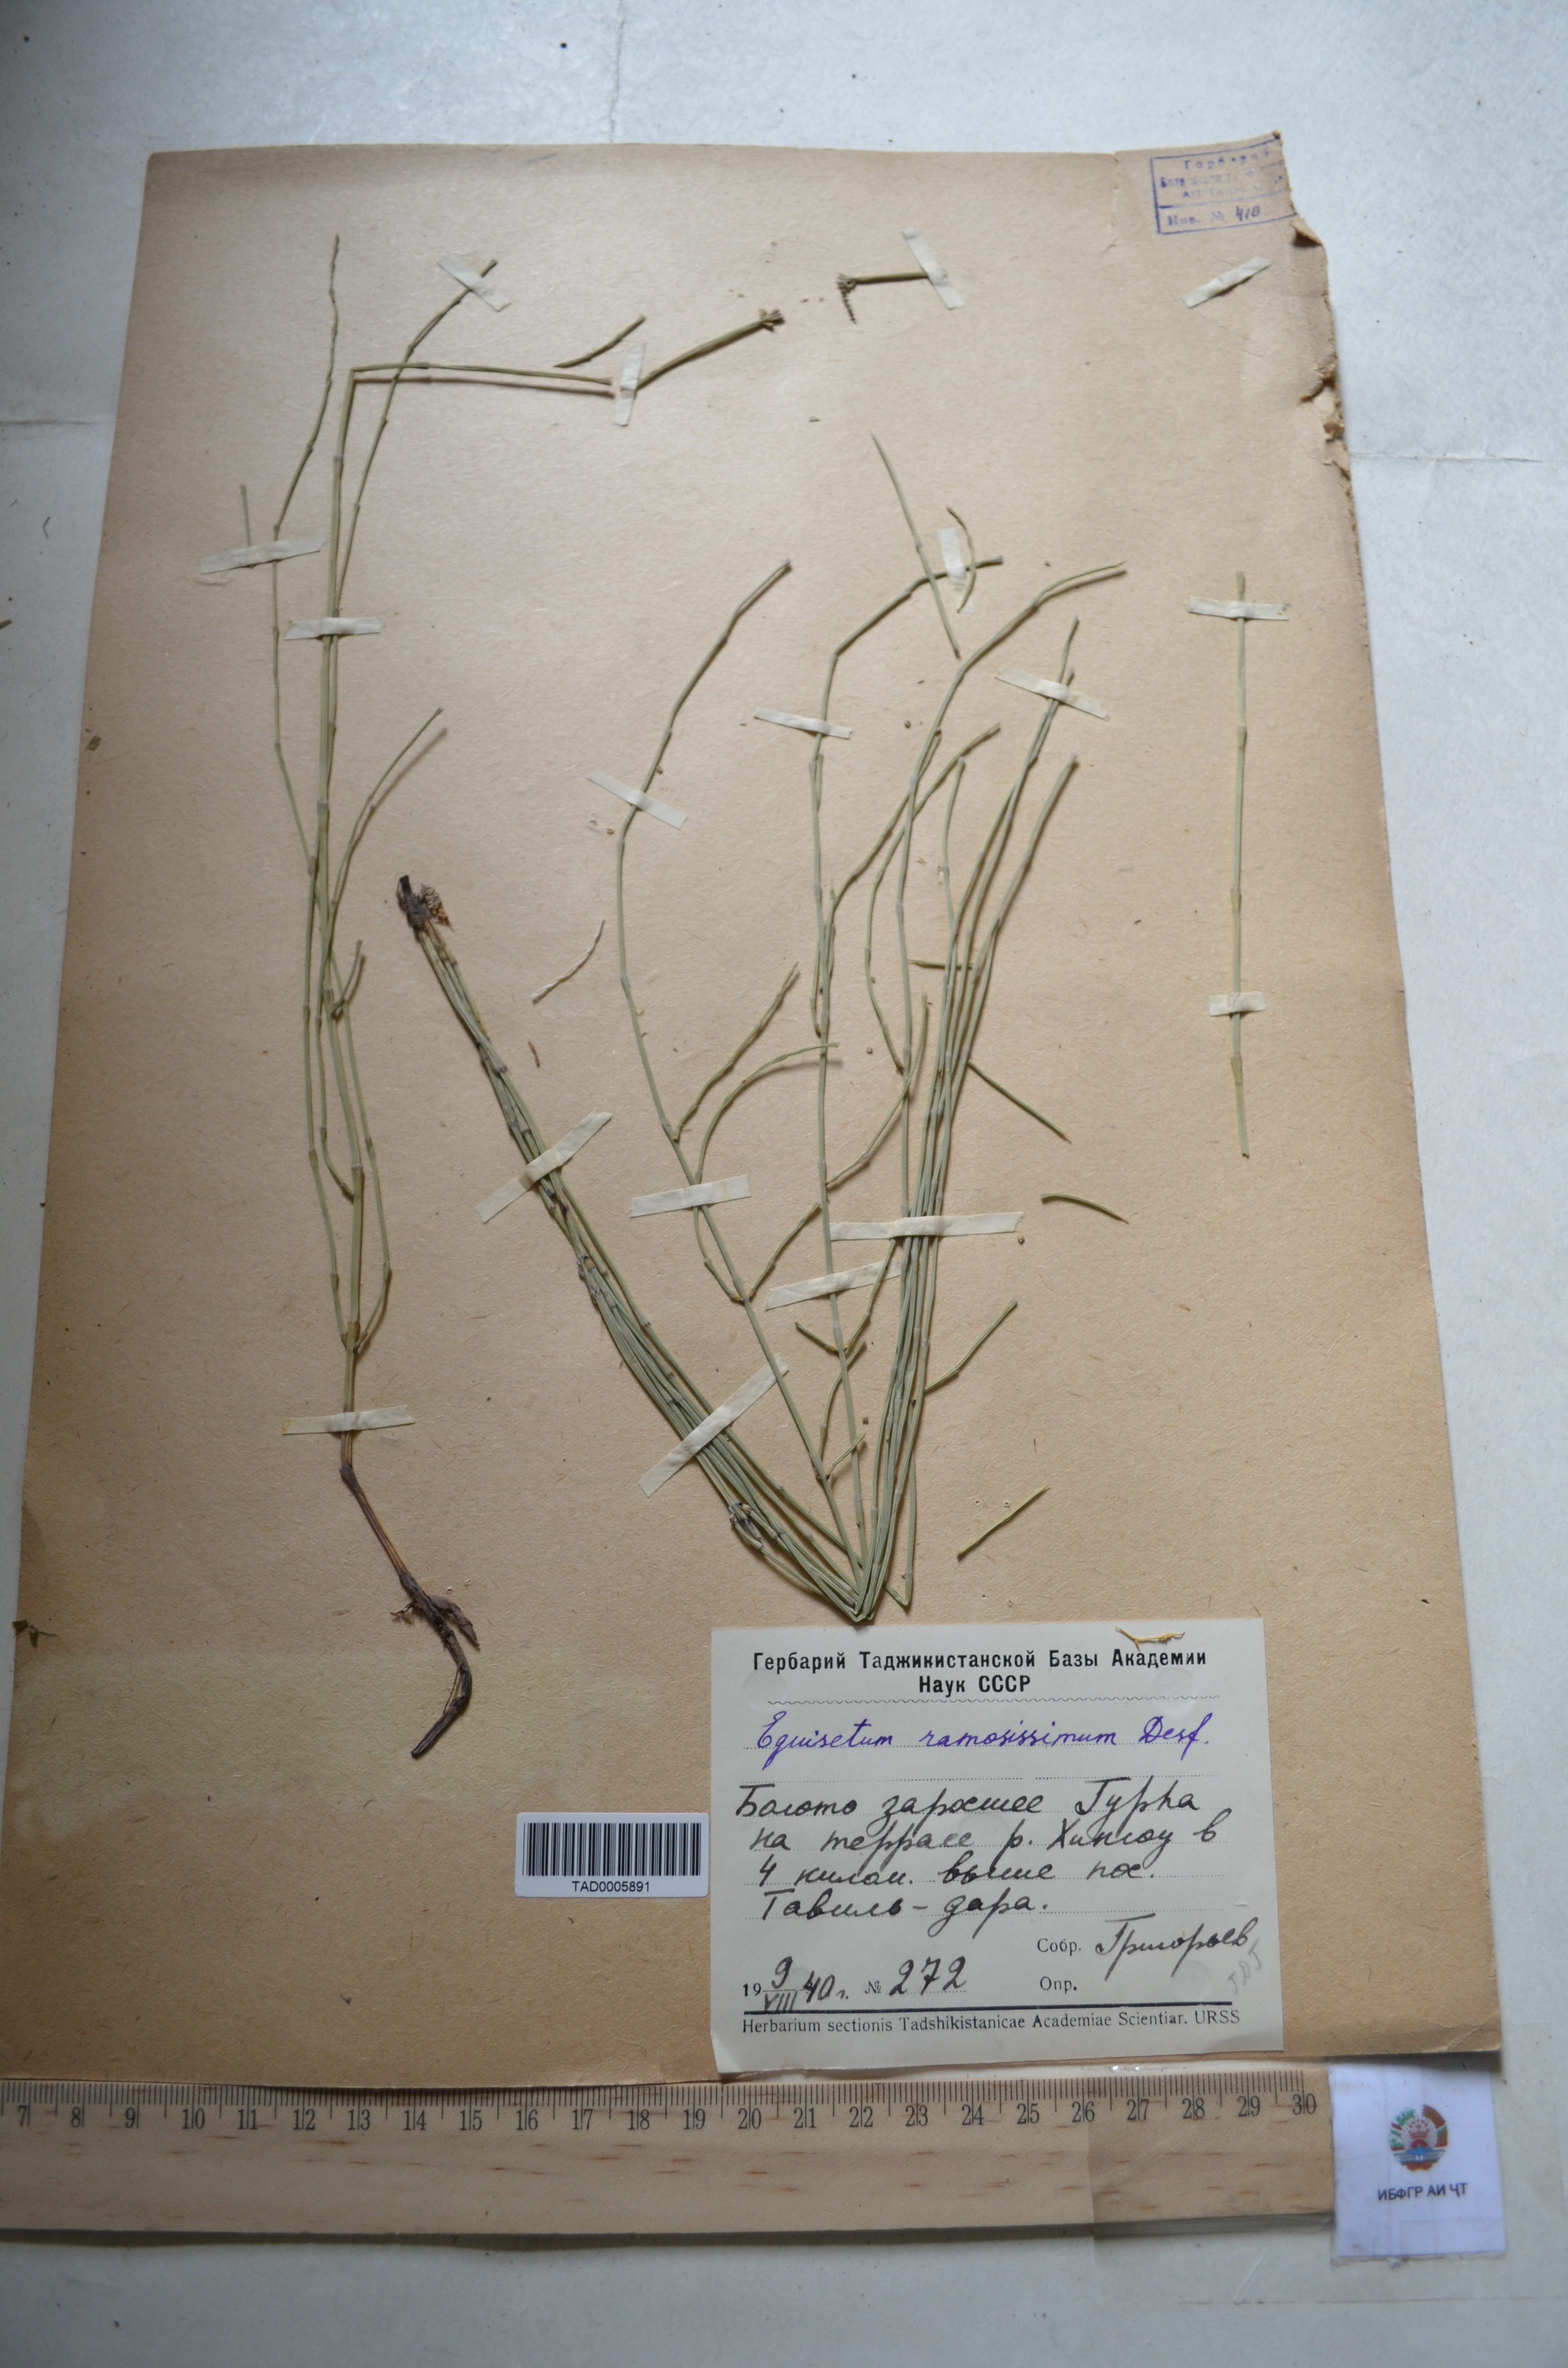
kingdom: Plantae
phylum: Tracheophyta
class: Polypodiopsida
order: Equisetales
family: Equisetaceae
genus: Equisetum
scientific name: Equisetum ramosissimum
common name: Branched horsetail
